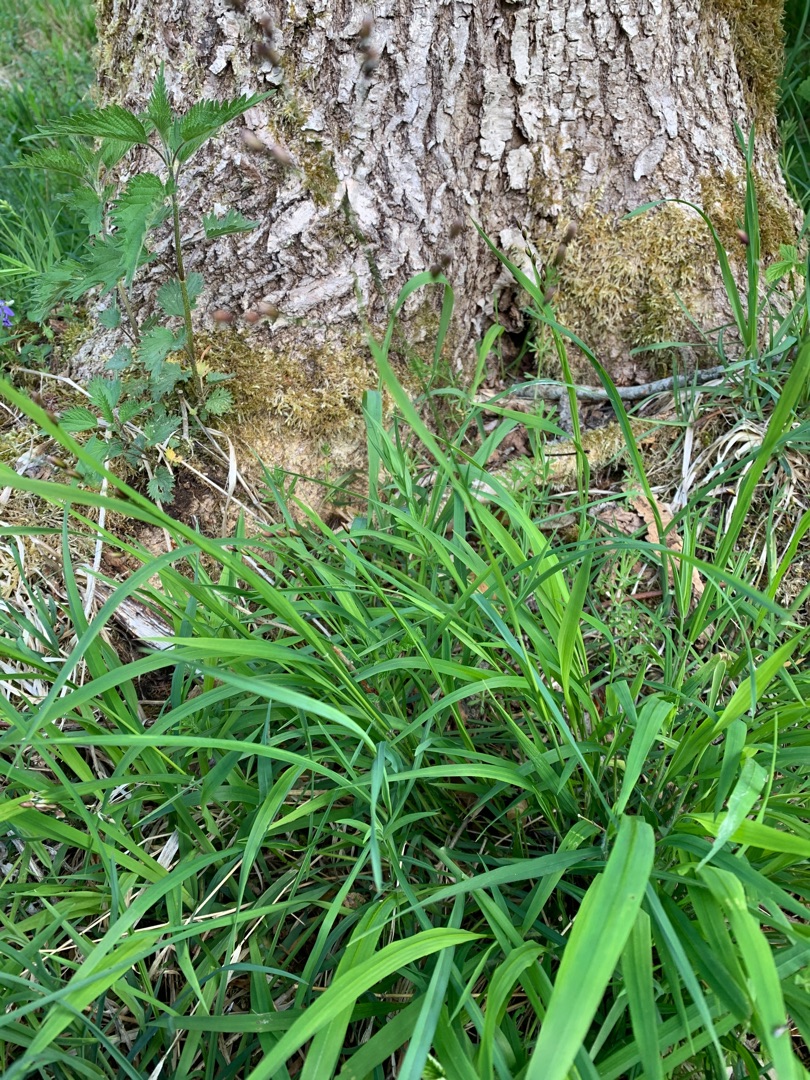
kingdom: Plantae
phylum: Tracheophyta
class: Liliopsida
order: Poales
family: Poaceae
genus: Melica
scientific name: Melica uniflora
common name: Enblomstret flitteraks
